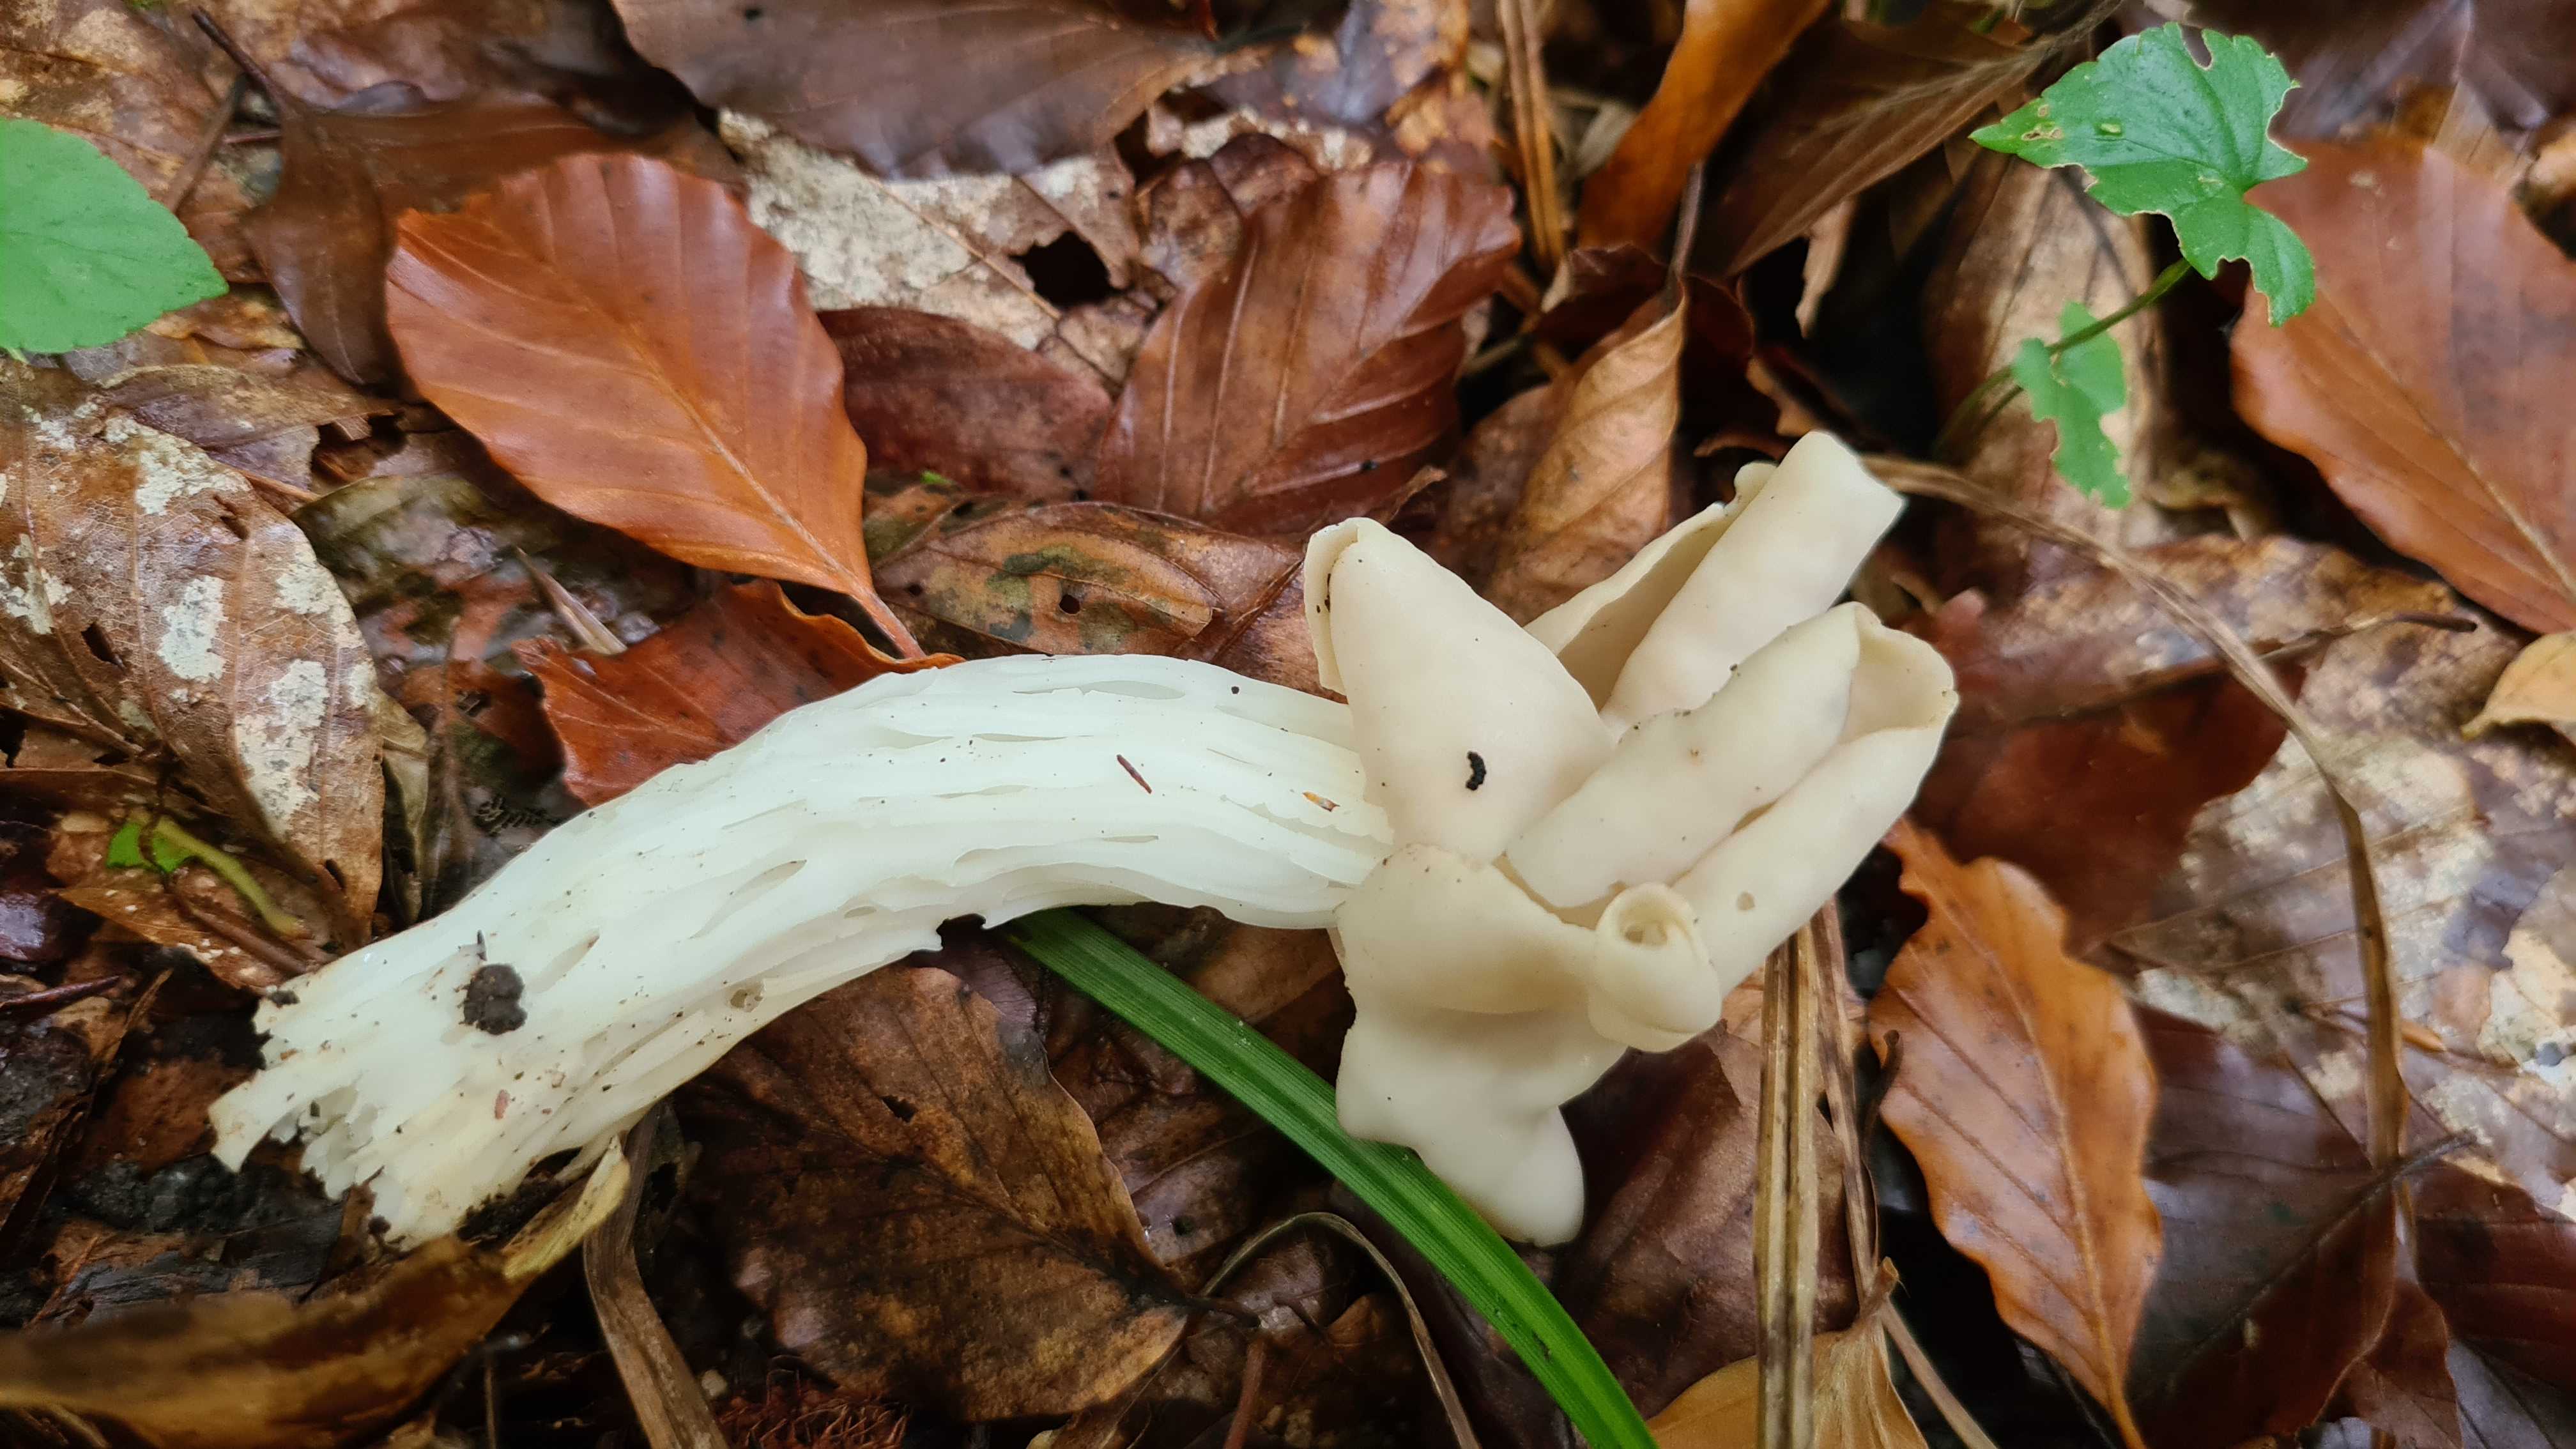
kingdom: Fungi
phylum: Ascomycota
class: Pezizomycetes
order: Pezizales
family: Helvellaceae
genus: Helvella
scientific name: Helvella crispa
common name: kruset foldhat
